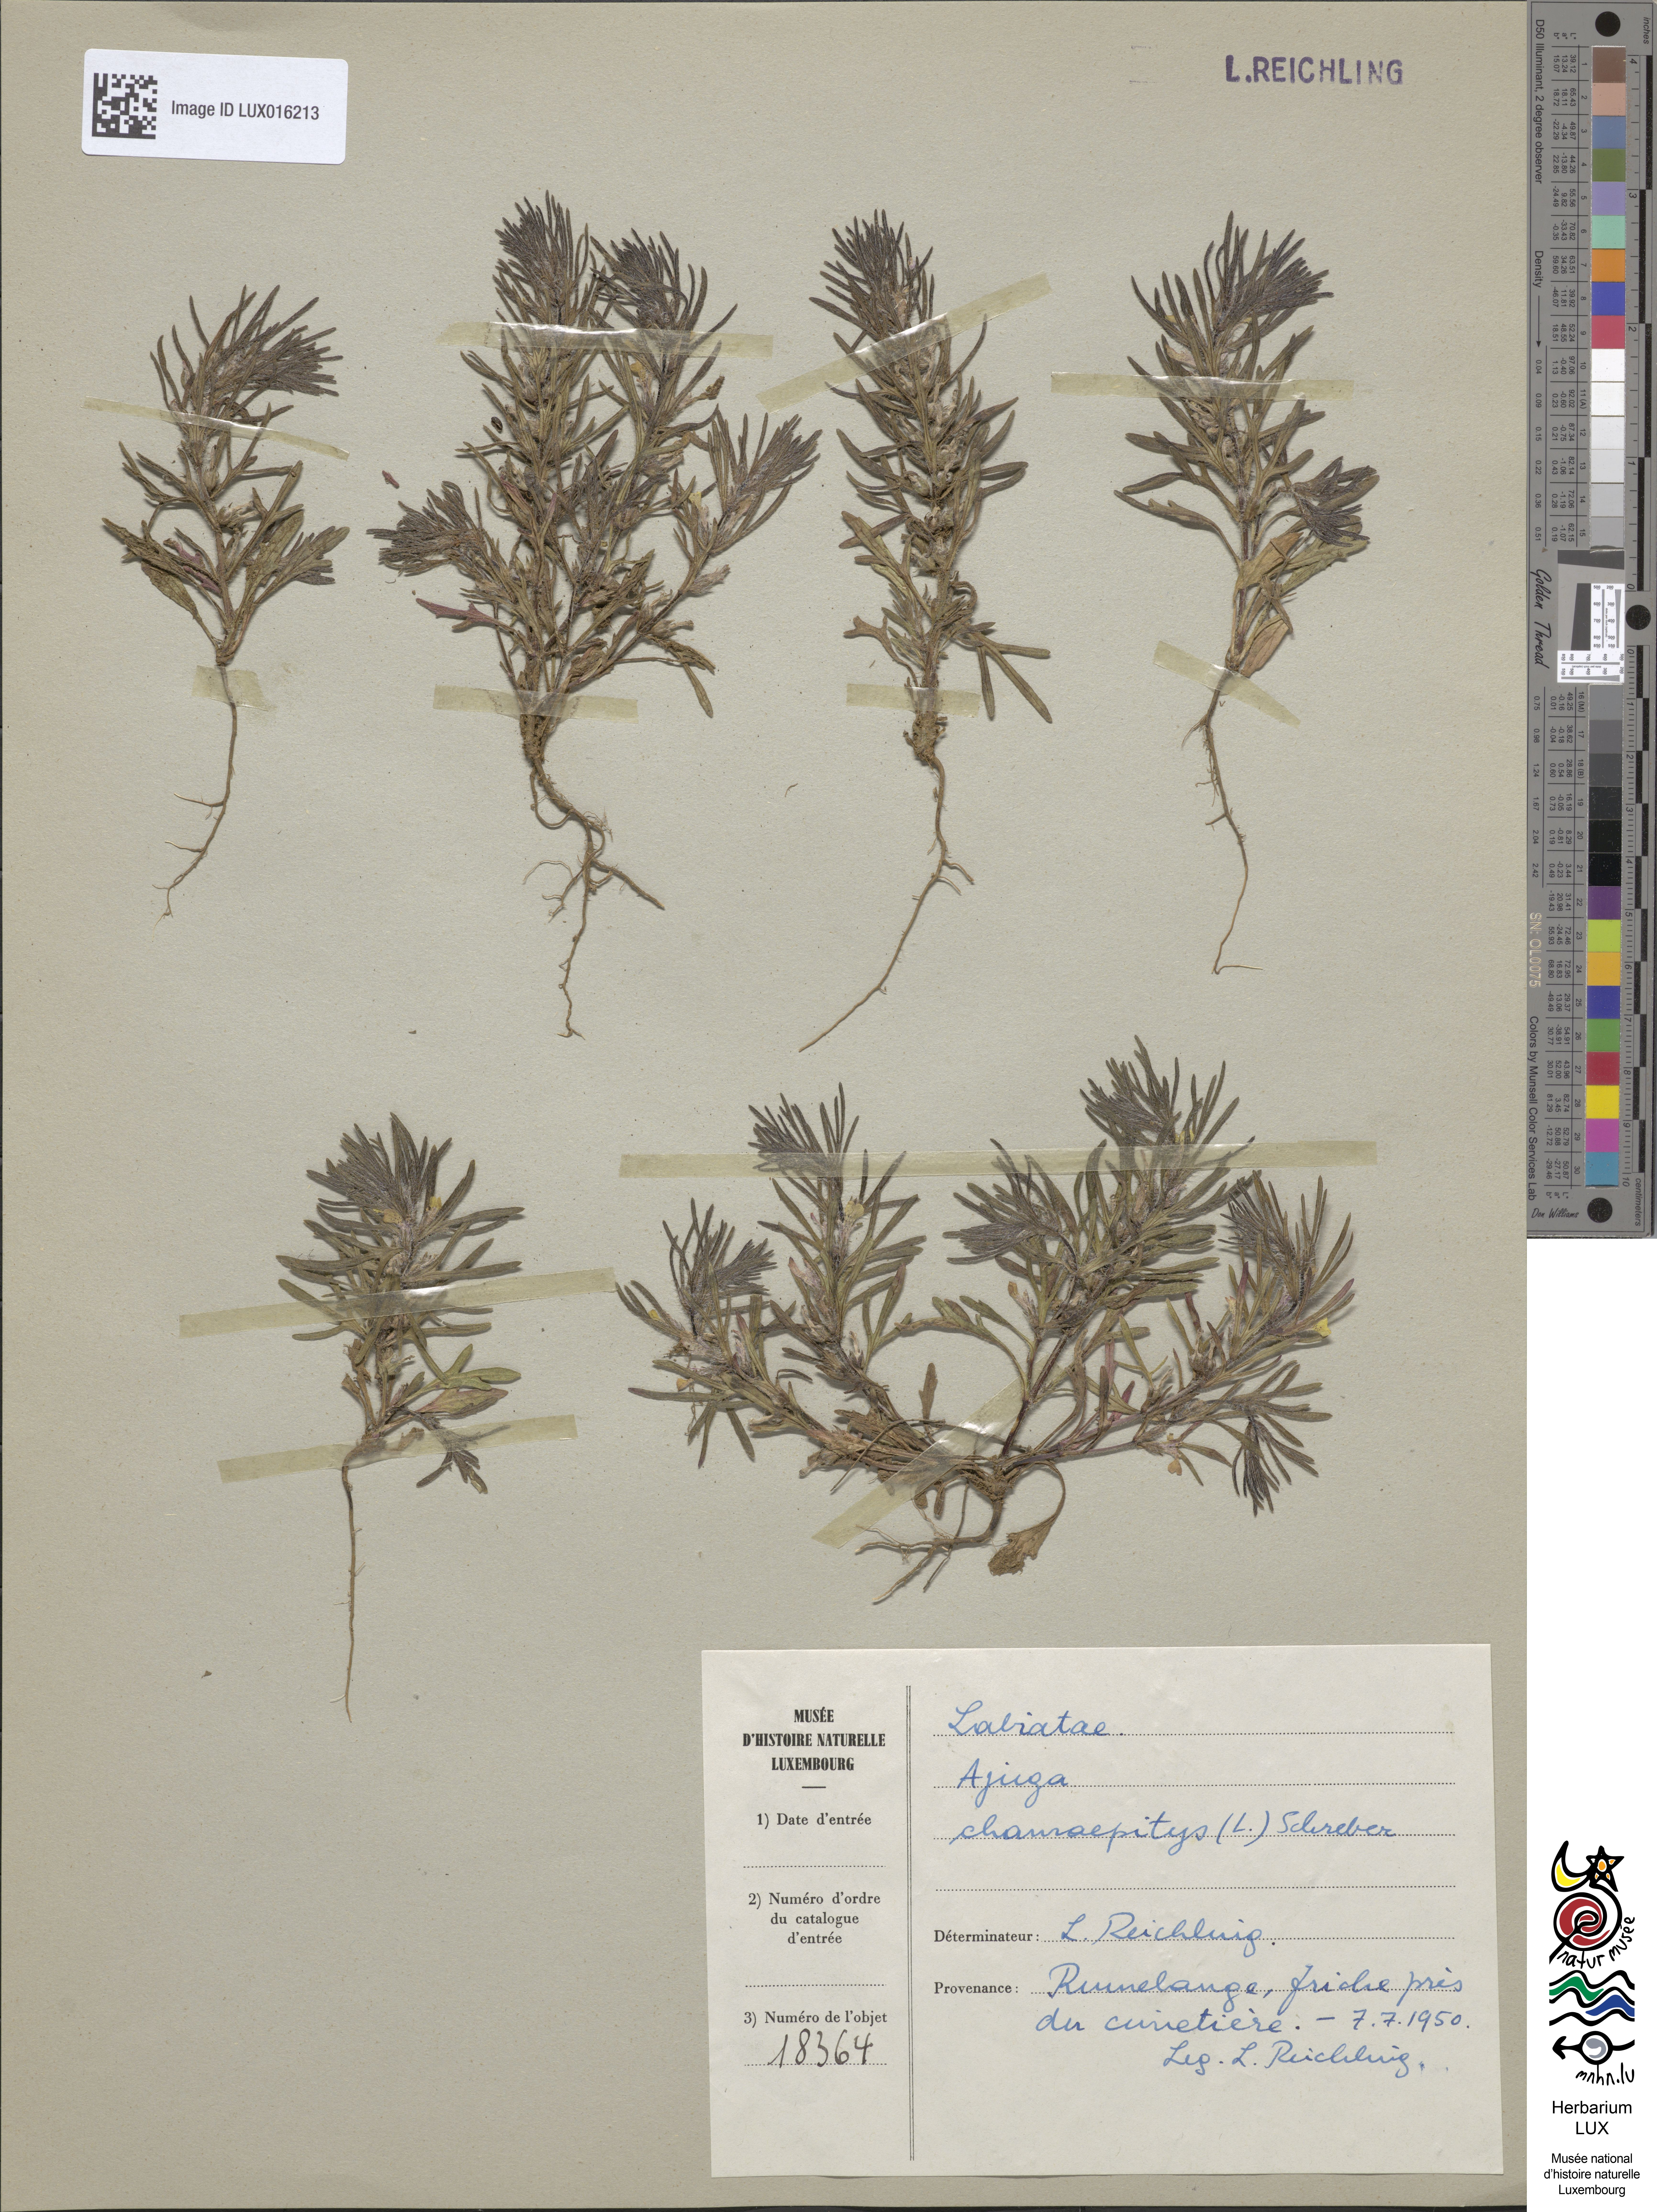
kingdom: Plantae
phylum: Tracheophyta
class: Magnoliopsida
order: Lamiales
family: Lamiaceae
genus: Ajuga
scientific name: Ajuga chamaepitys
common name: Ground-pine
